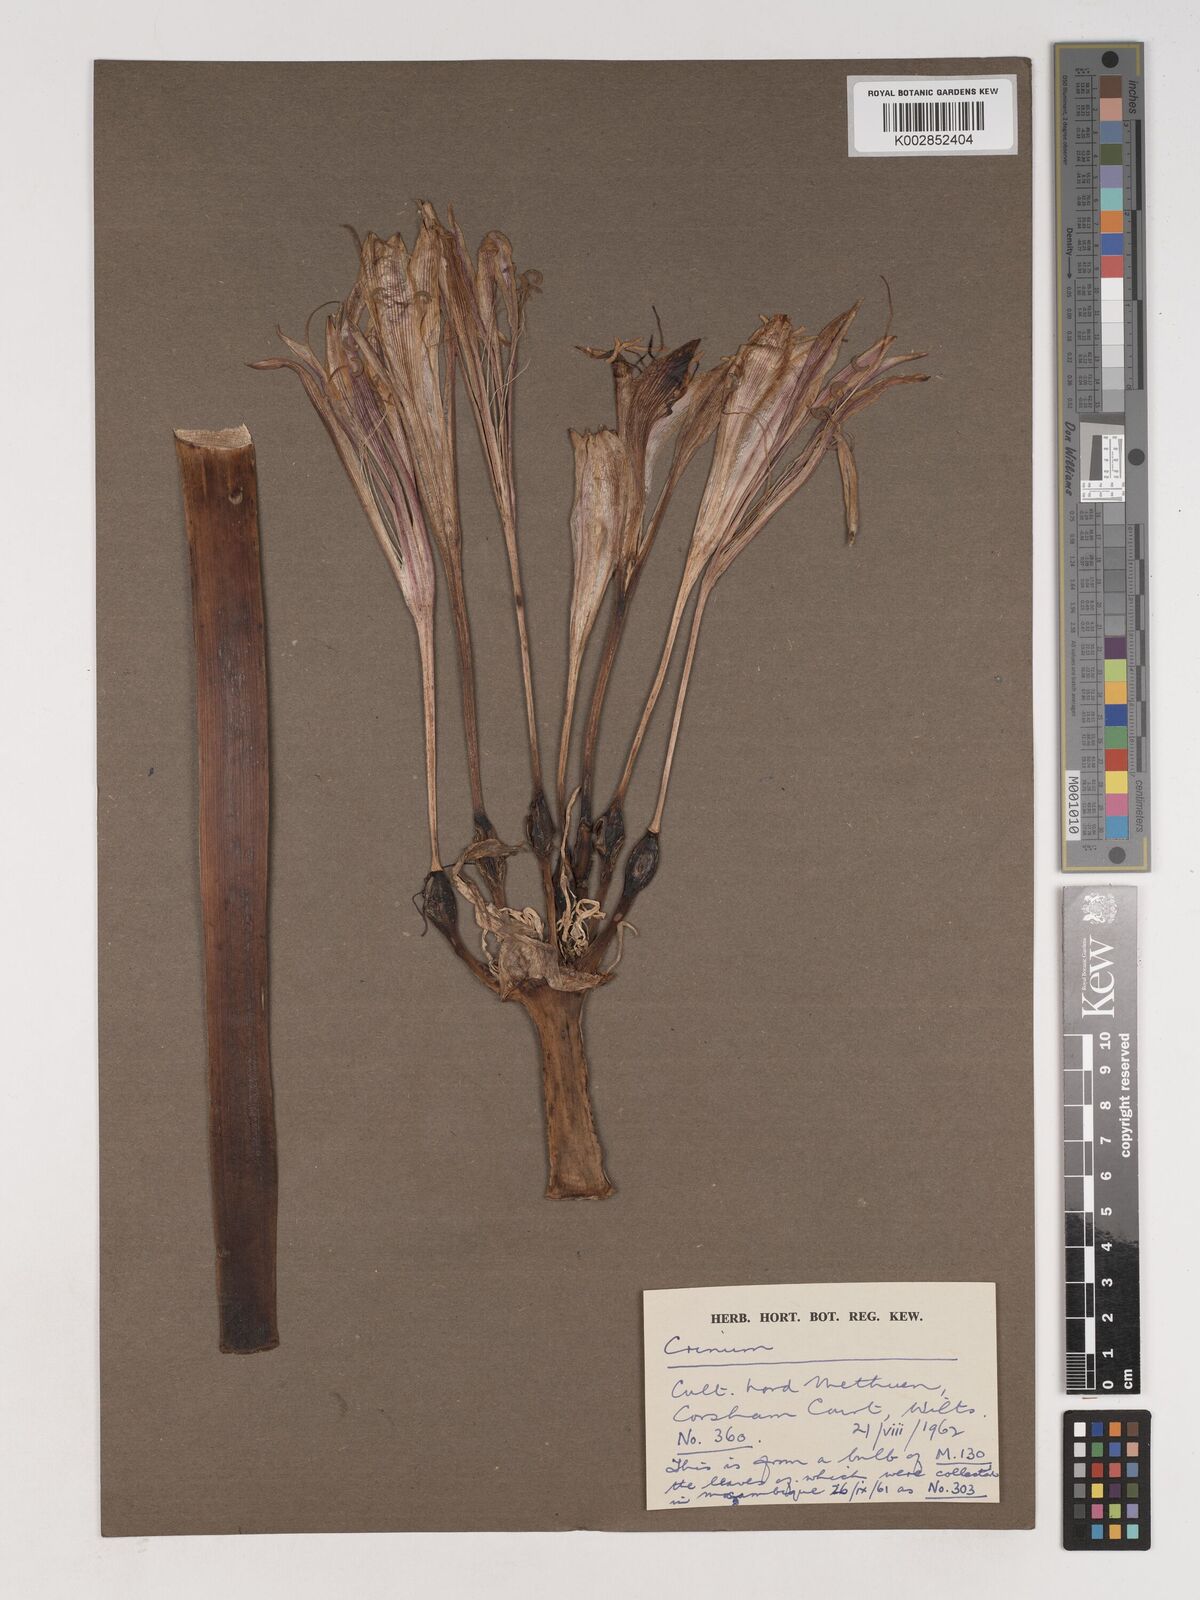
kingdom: Plantae
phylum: Tracheophyta
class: Liliopsida
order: Asparagales
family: Amaryllidaceae
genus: Crinum
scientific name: Crinum stuhlmannii
